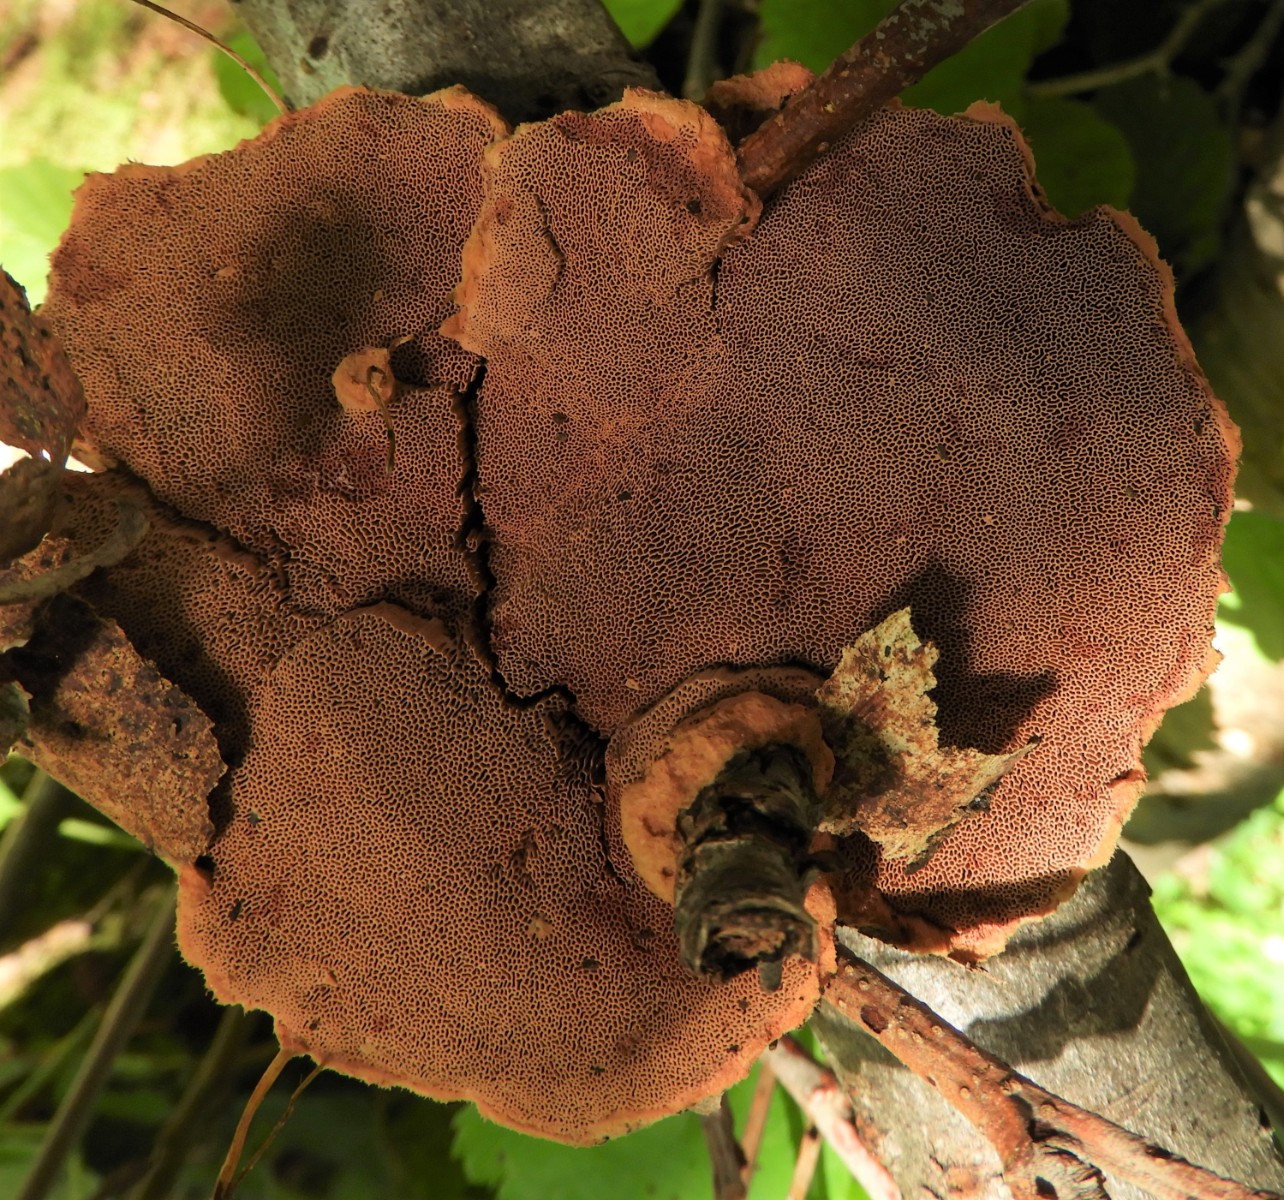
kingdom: Fungi
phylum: Basidiomycota
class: Agaricomycetes
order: Polyporales
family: Phanerochaetaceae
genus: Hapalopilus
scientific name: Hapalopilus rutilans
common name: rødlig okkerporesvamp
